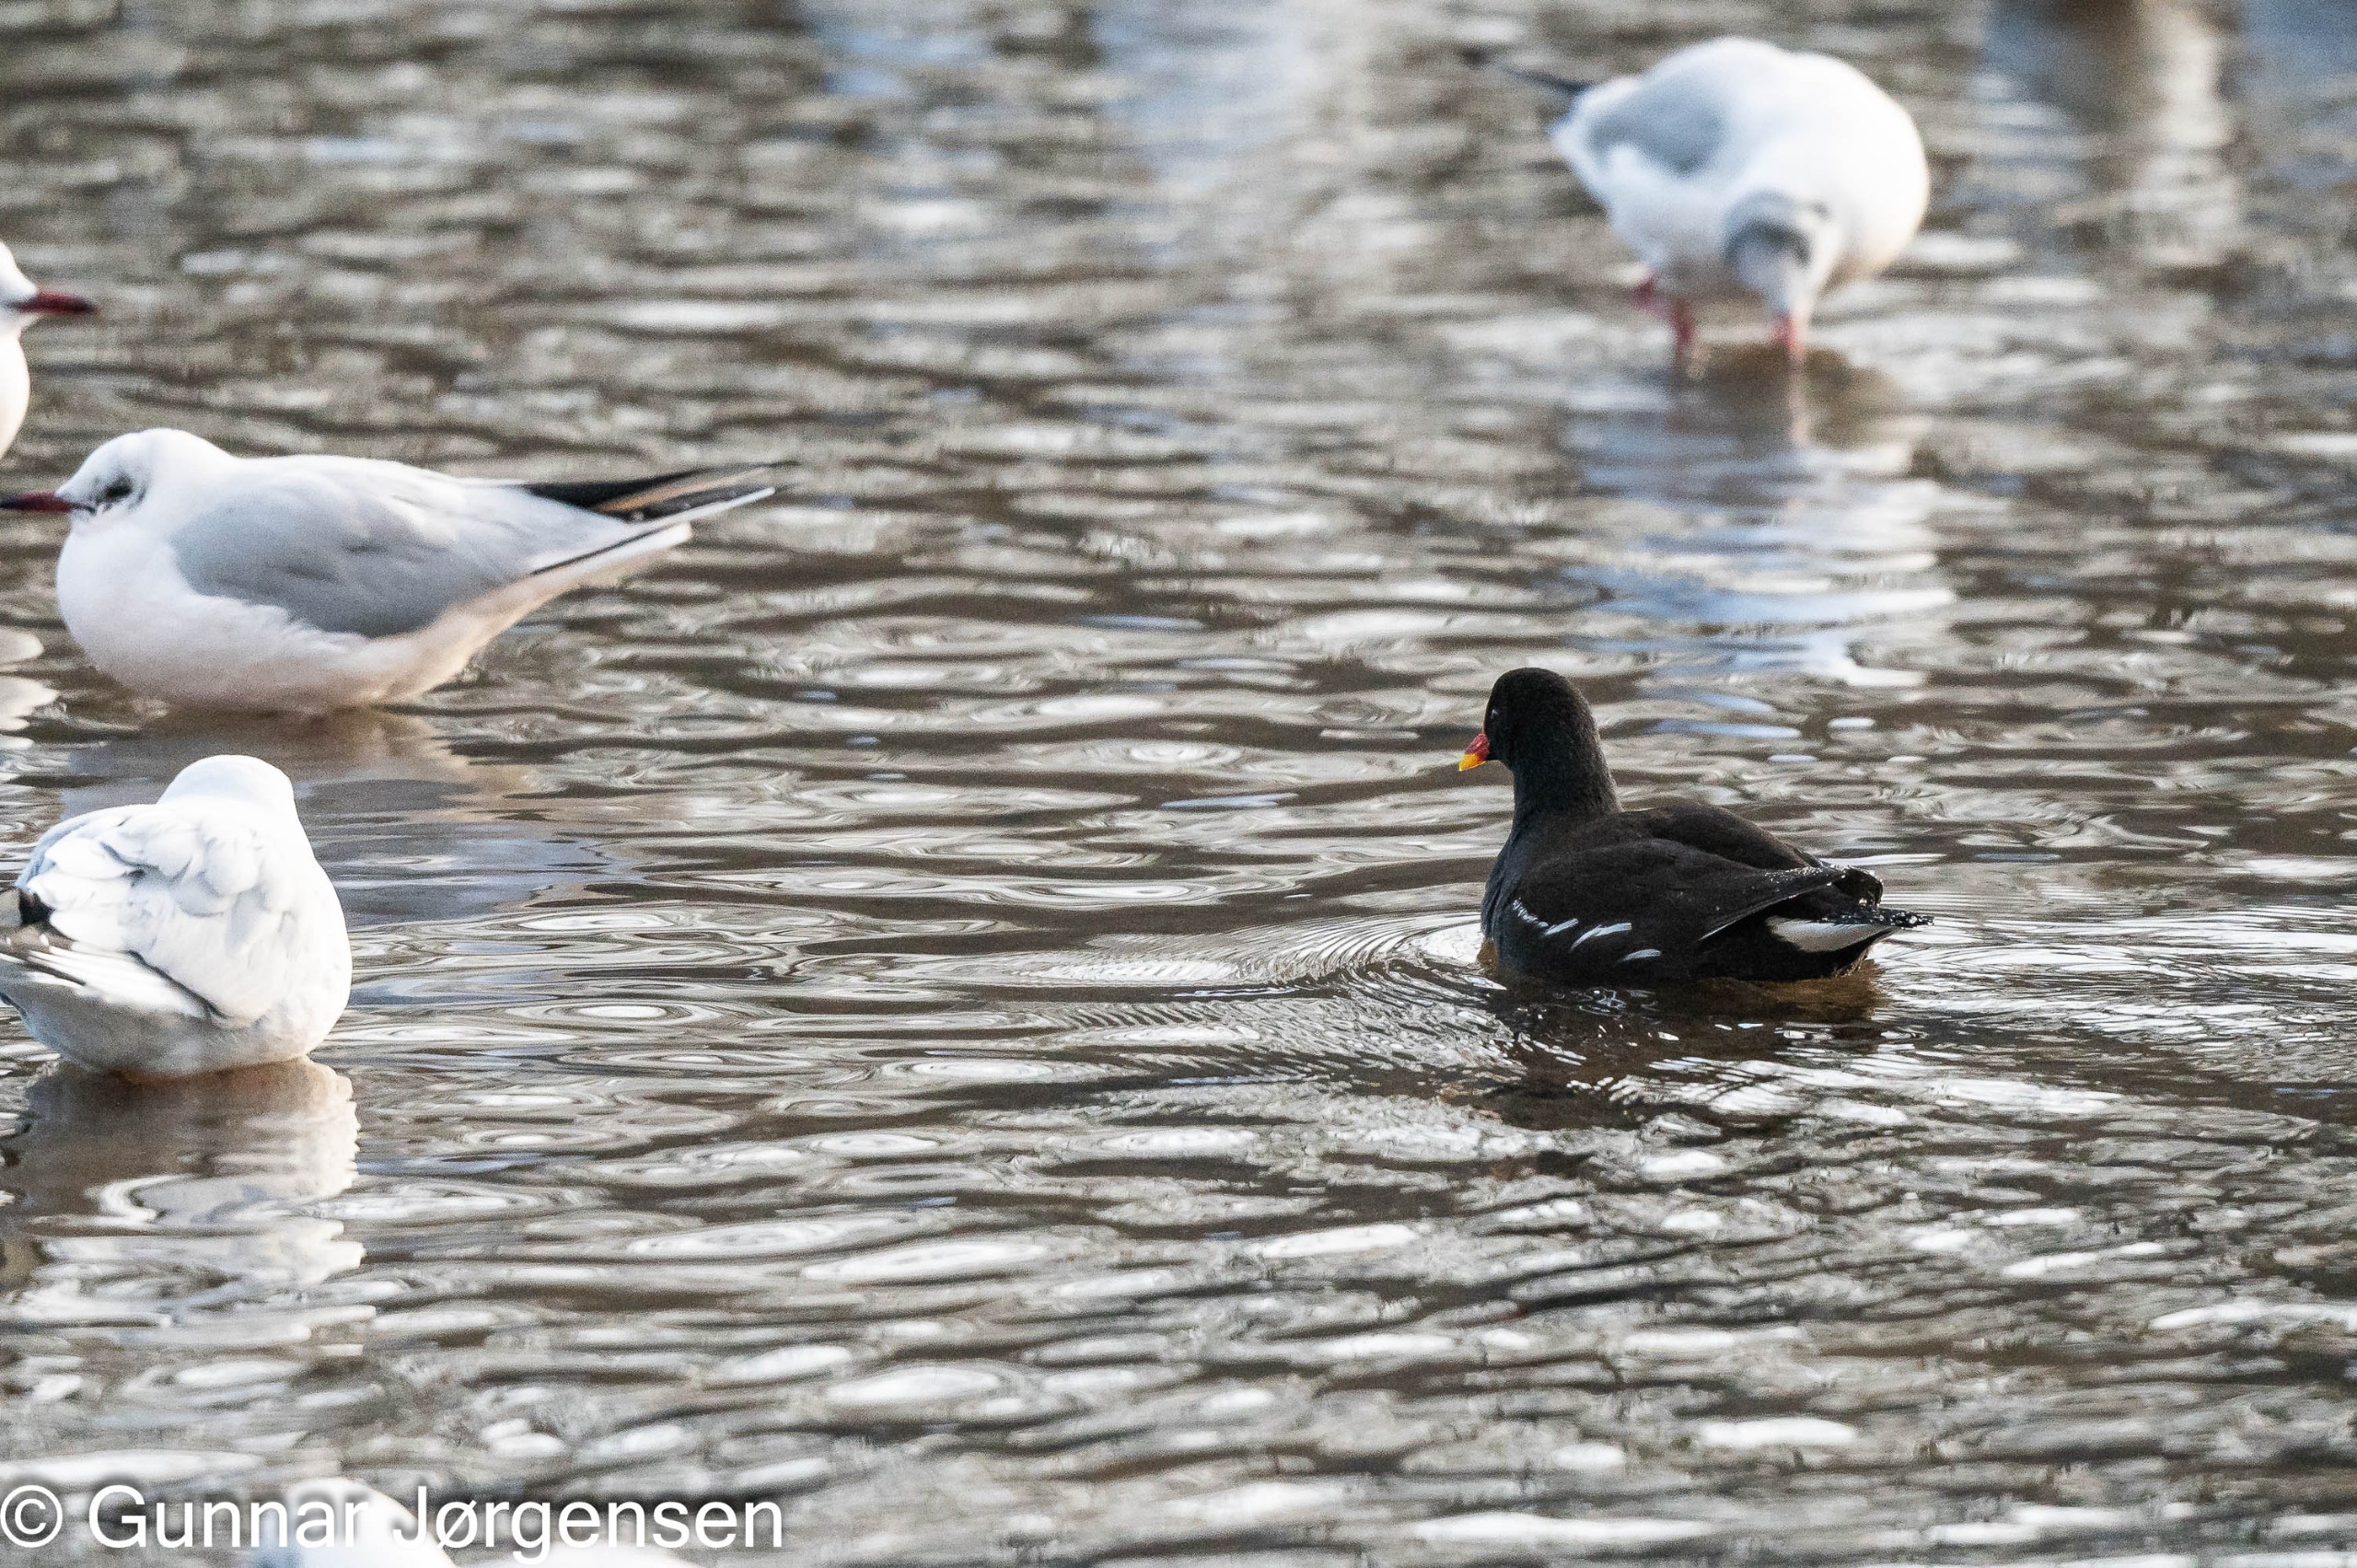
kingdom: Animalia
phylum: Chordata
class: Aves
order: Gruiformes
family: Rallidae
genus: Gallinula
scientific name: Gallinula chloropus
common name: Grønbenet rørhøne
